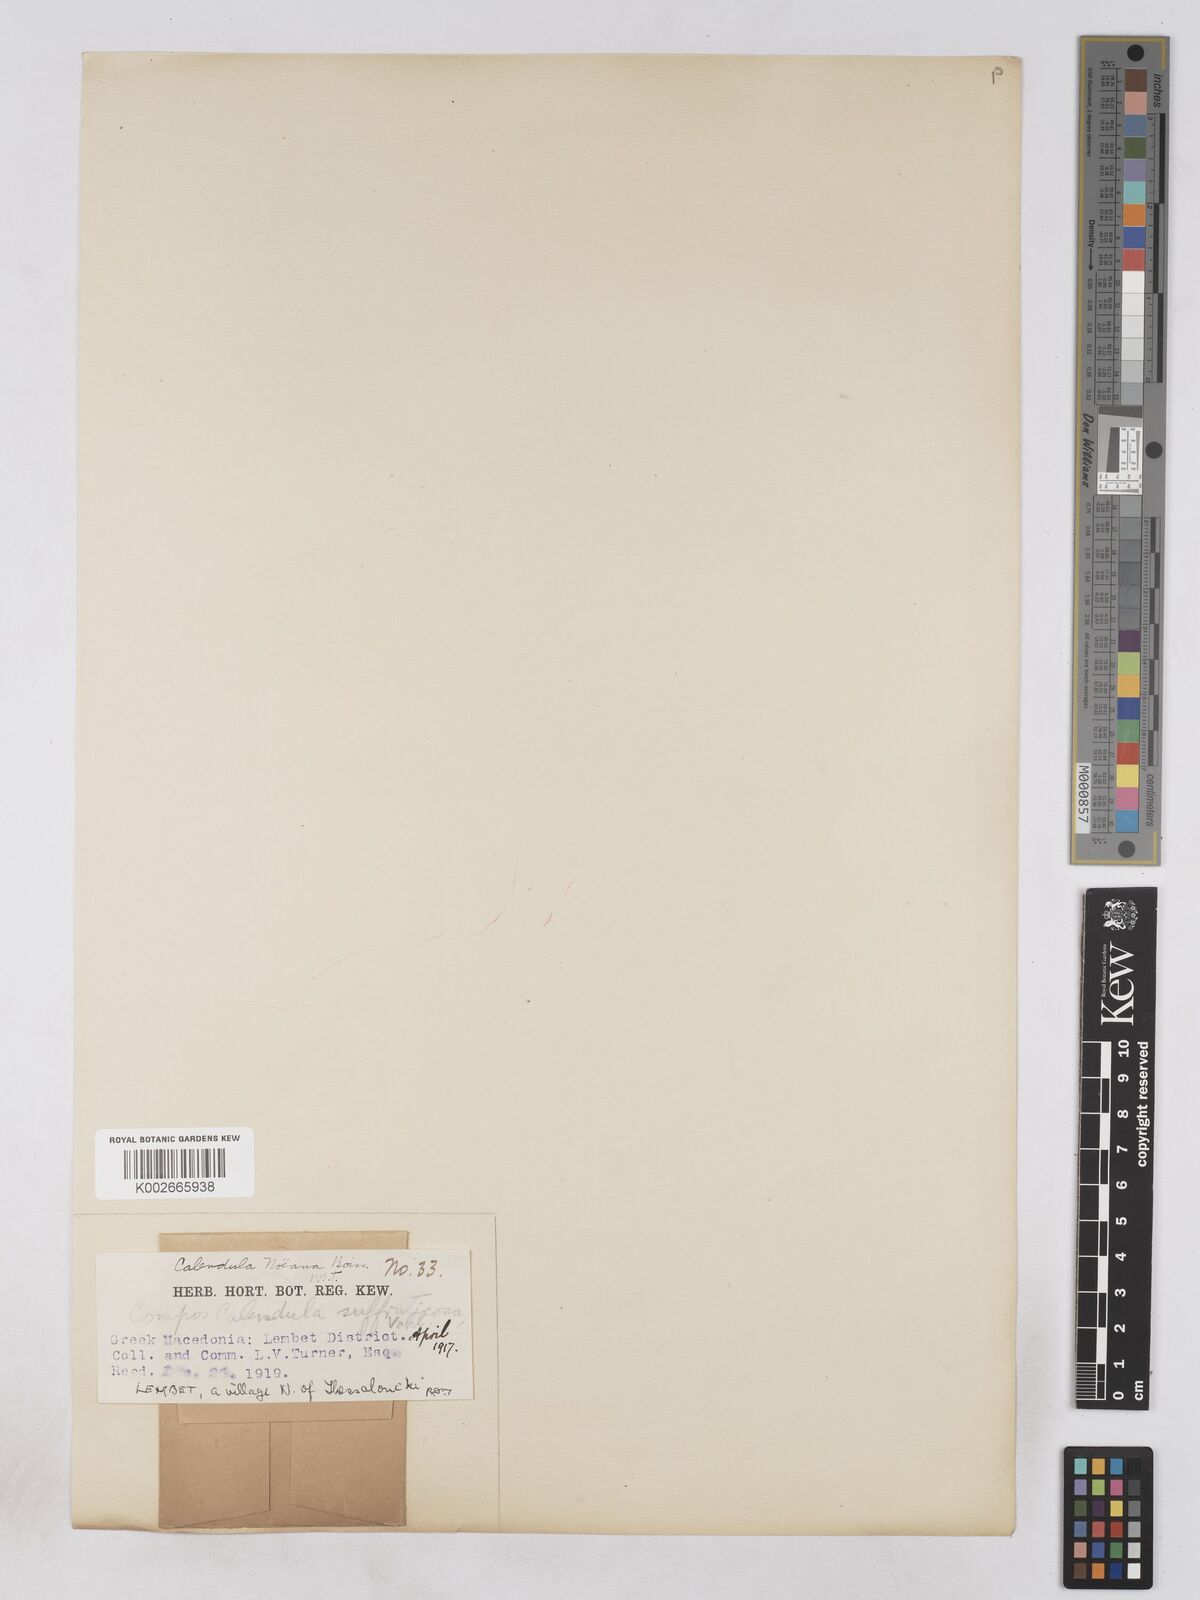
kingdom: Plantae
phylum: Tracheophyta
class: Magnoliopsida
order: Asterales
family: Asteraceae
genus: Calendula
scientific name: Calendula suffruticosa
